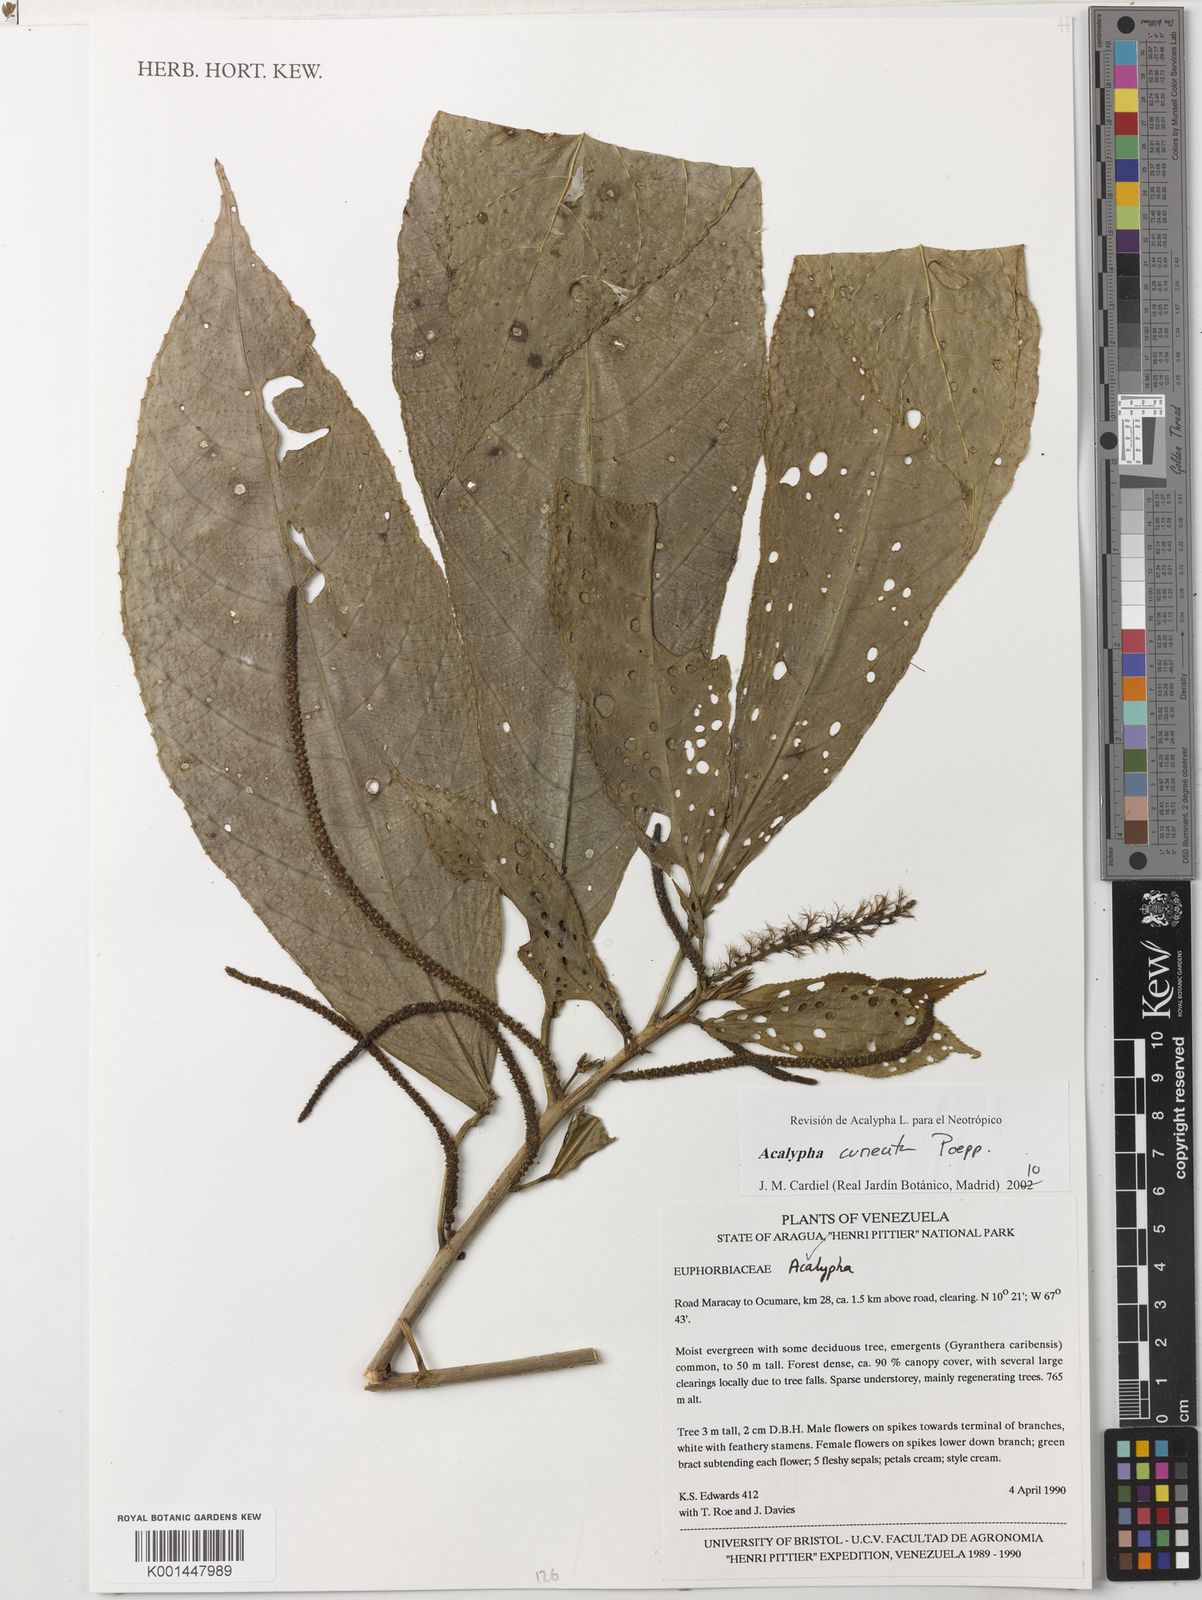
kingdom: Plantae
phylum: Tracheophyta
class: Magnoliopsida
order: Malpighiales
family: Euphorbiaceae
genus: Acalypha
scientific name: Acalypha cuneata
